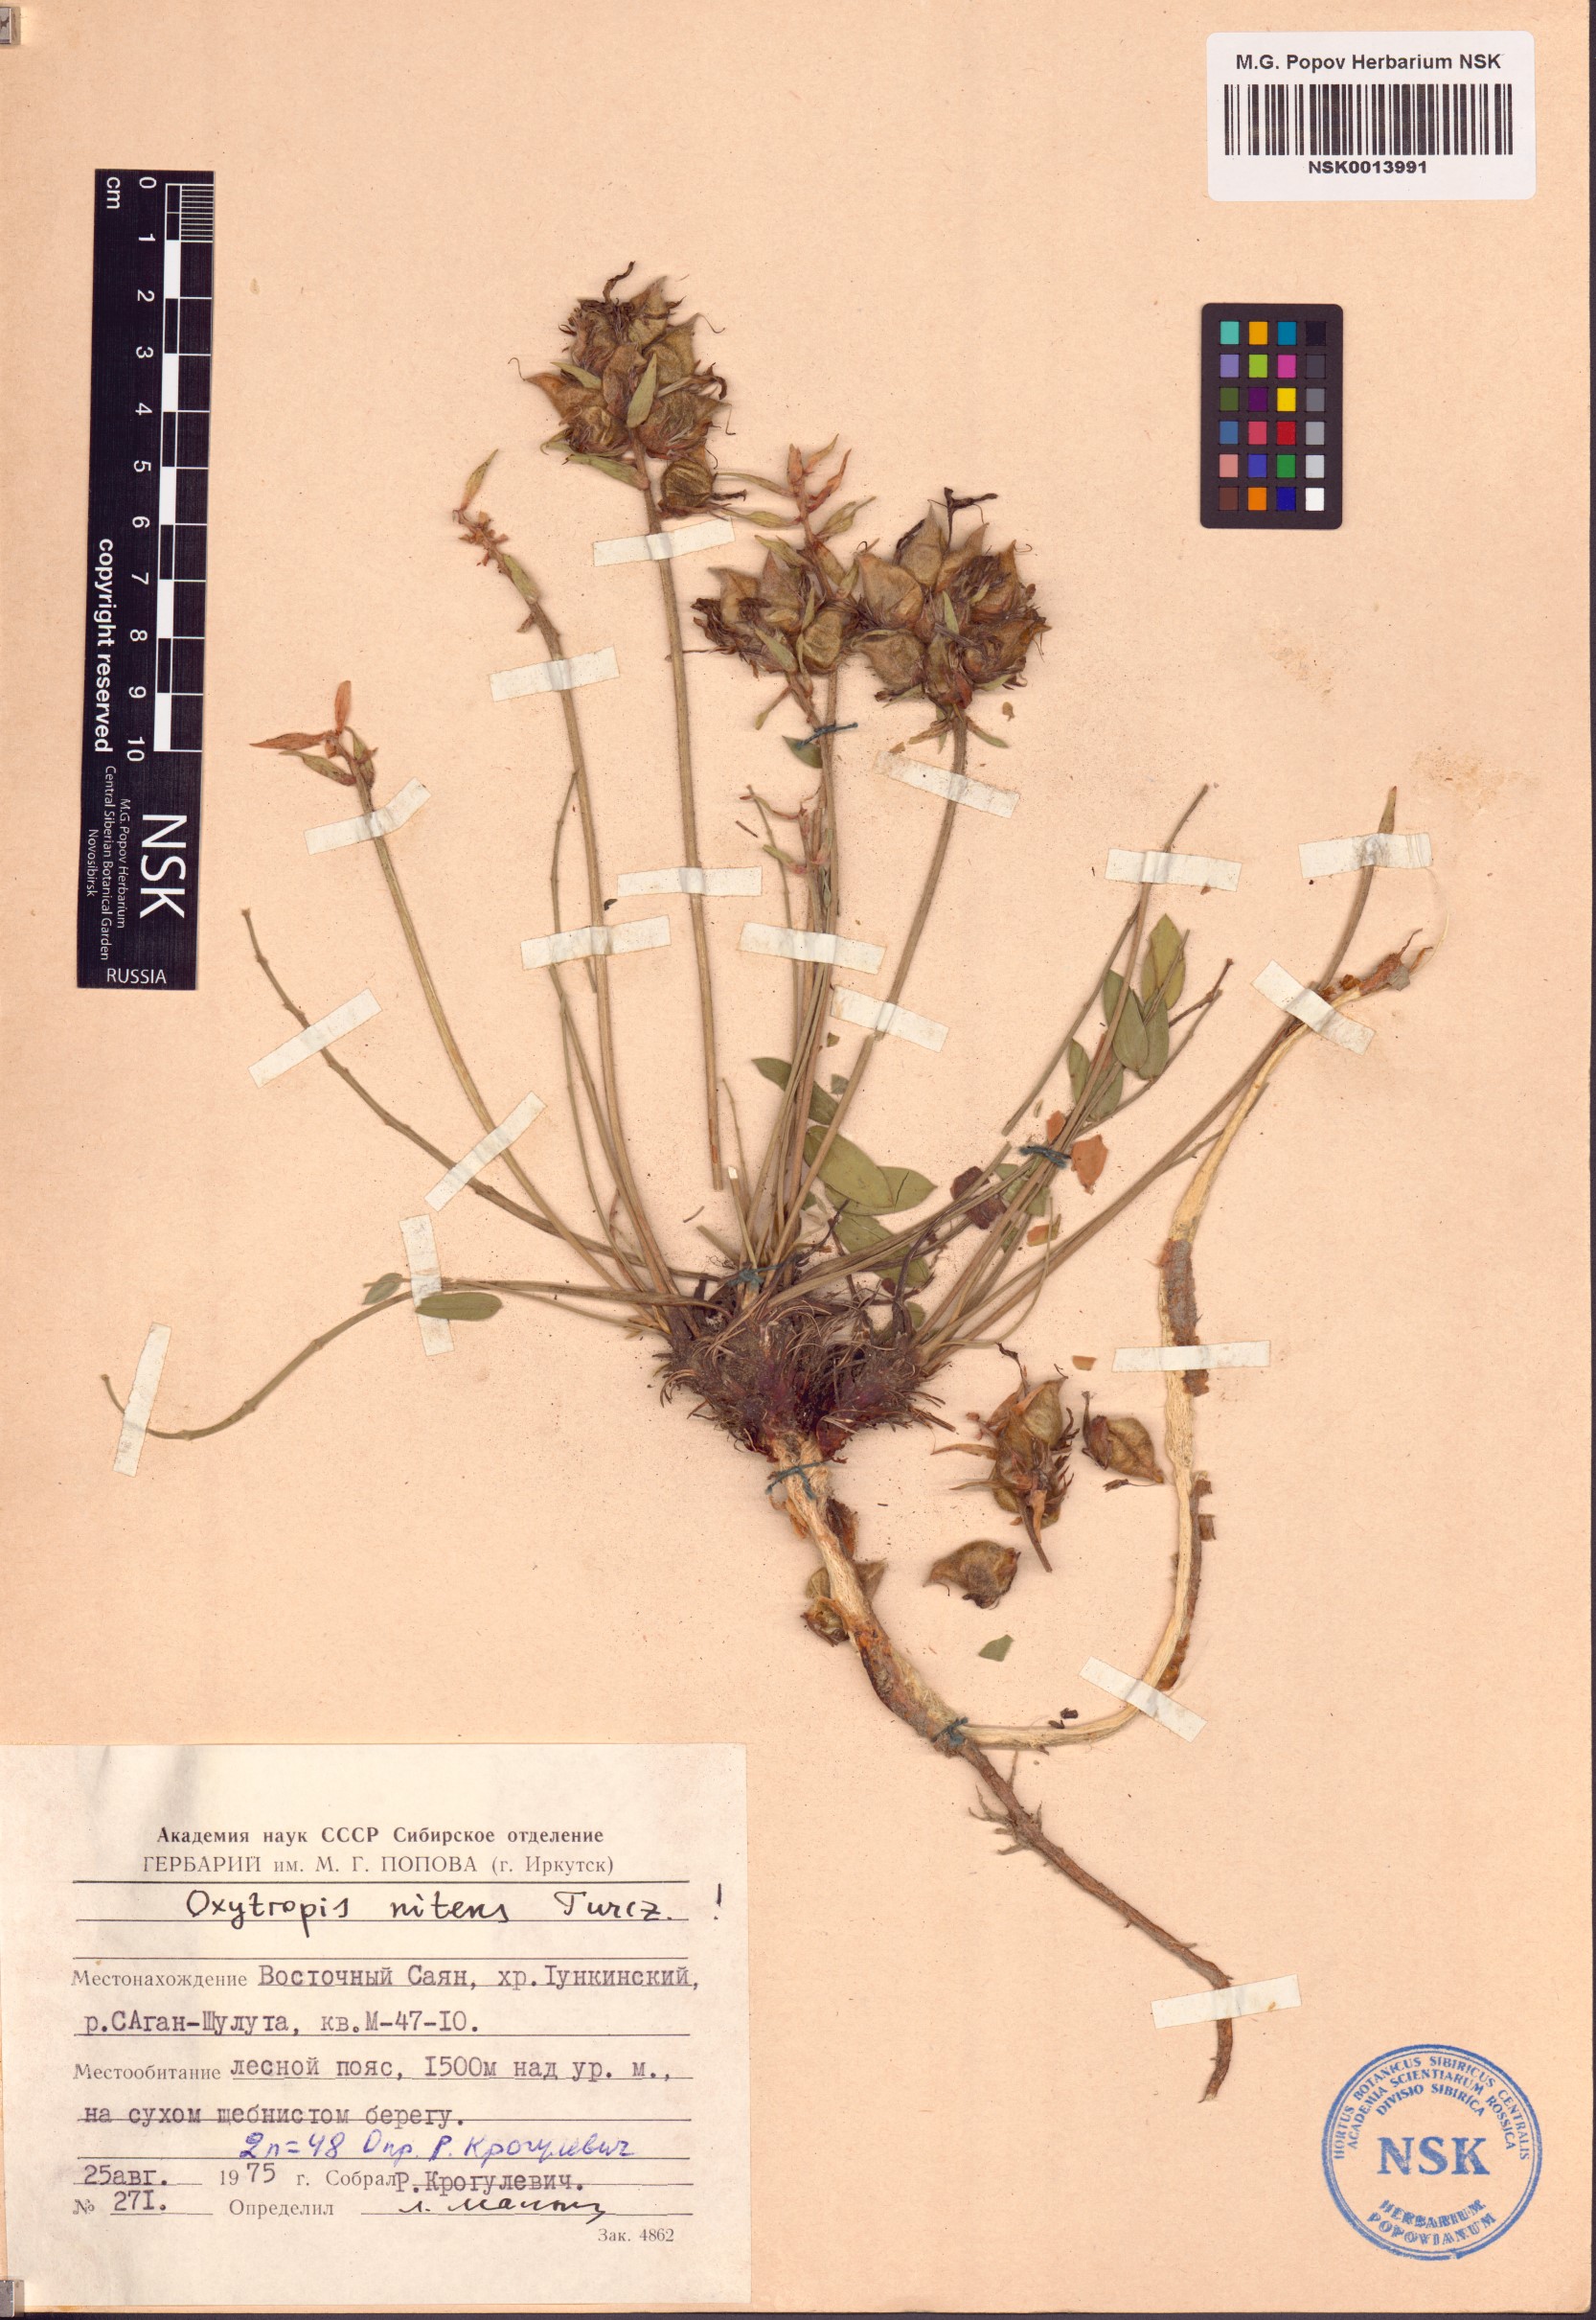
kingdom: Plantae
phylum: Tracheophyta
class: Magnoliopsida
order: Fabales
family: Fabaceae
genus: Oxytropis
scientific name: Oxytropis nitens
